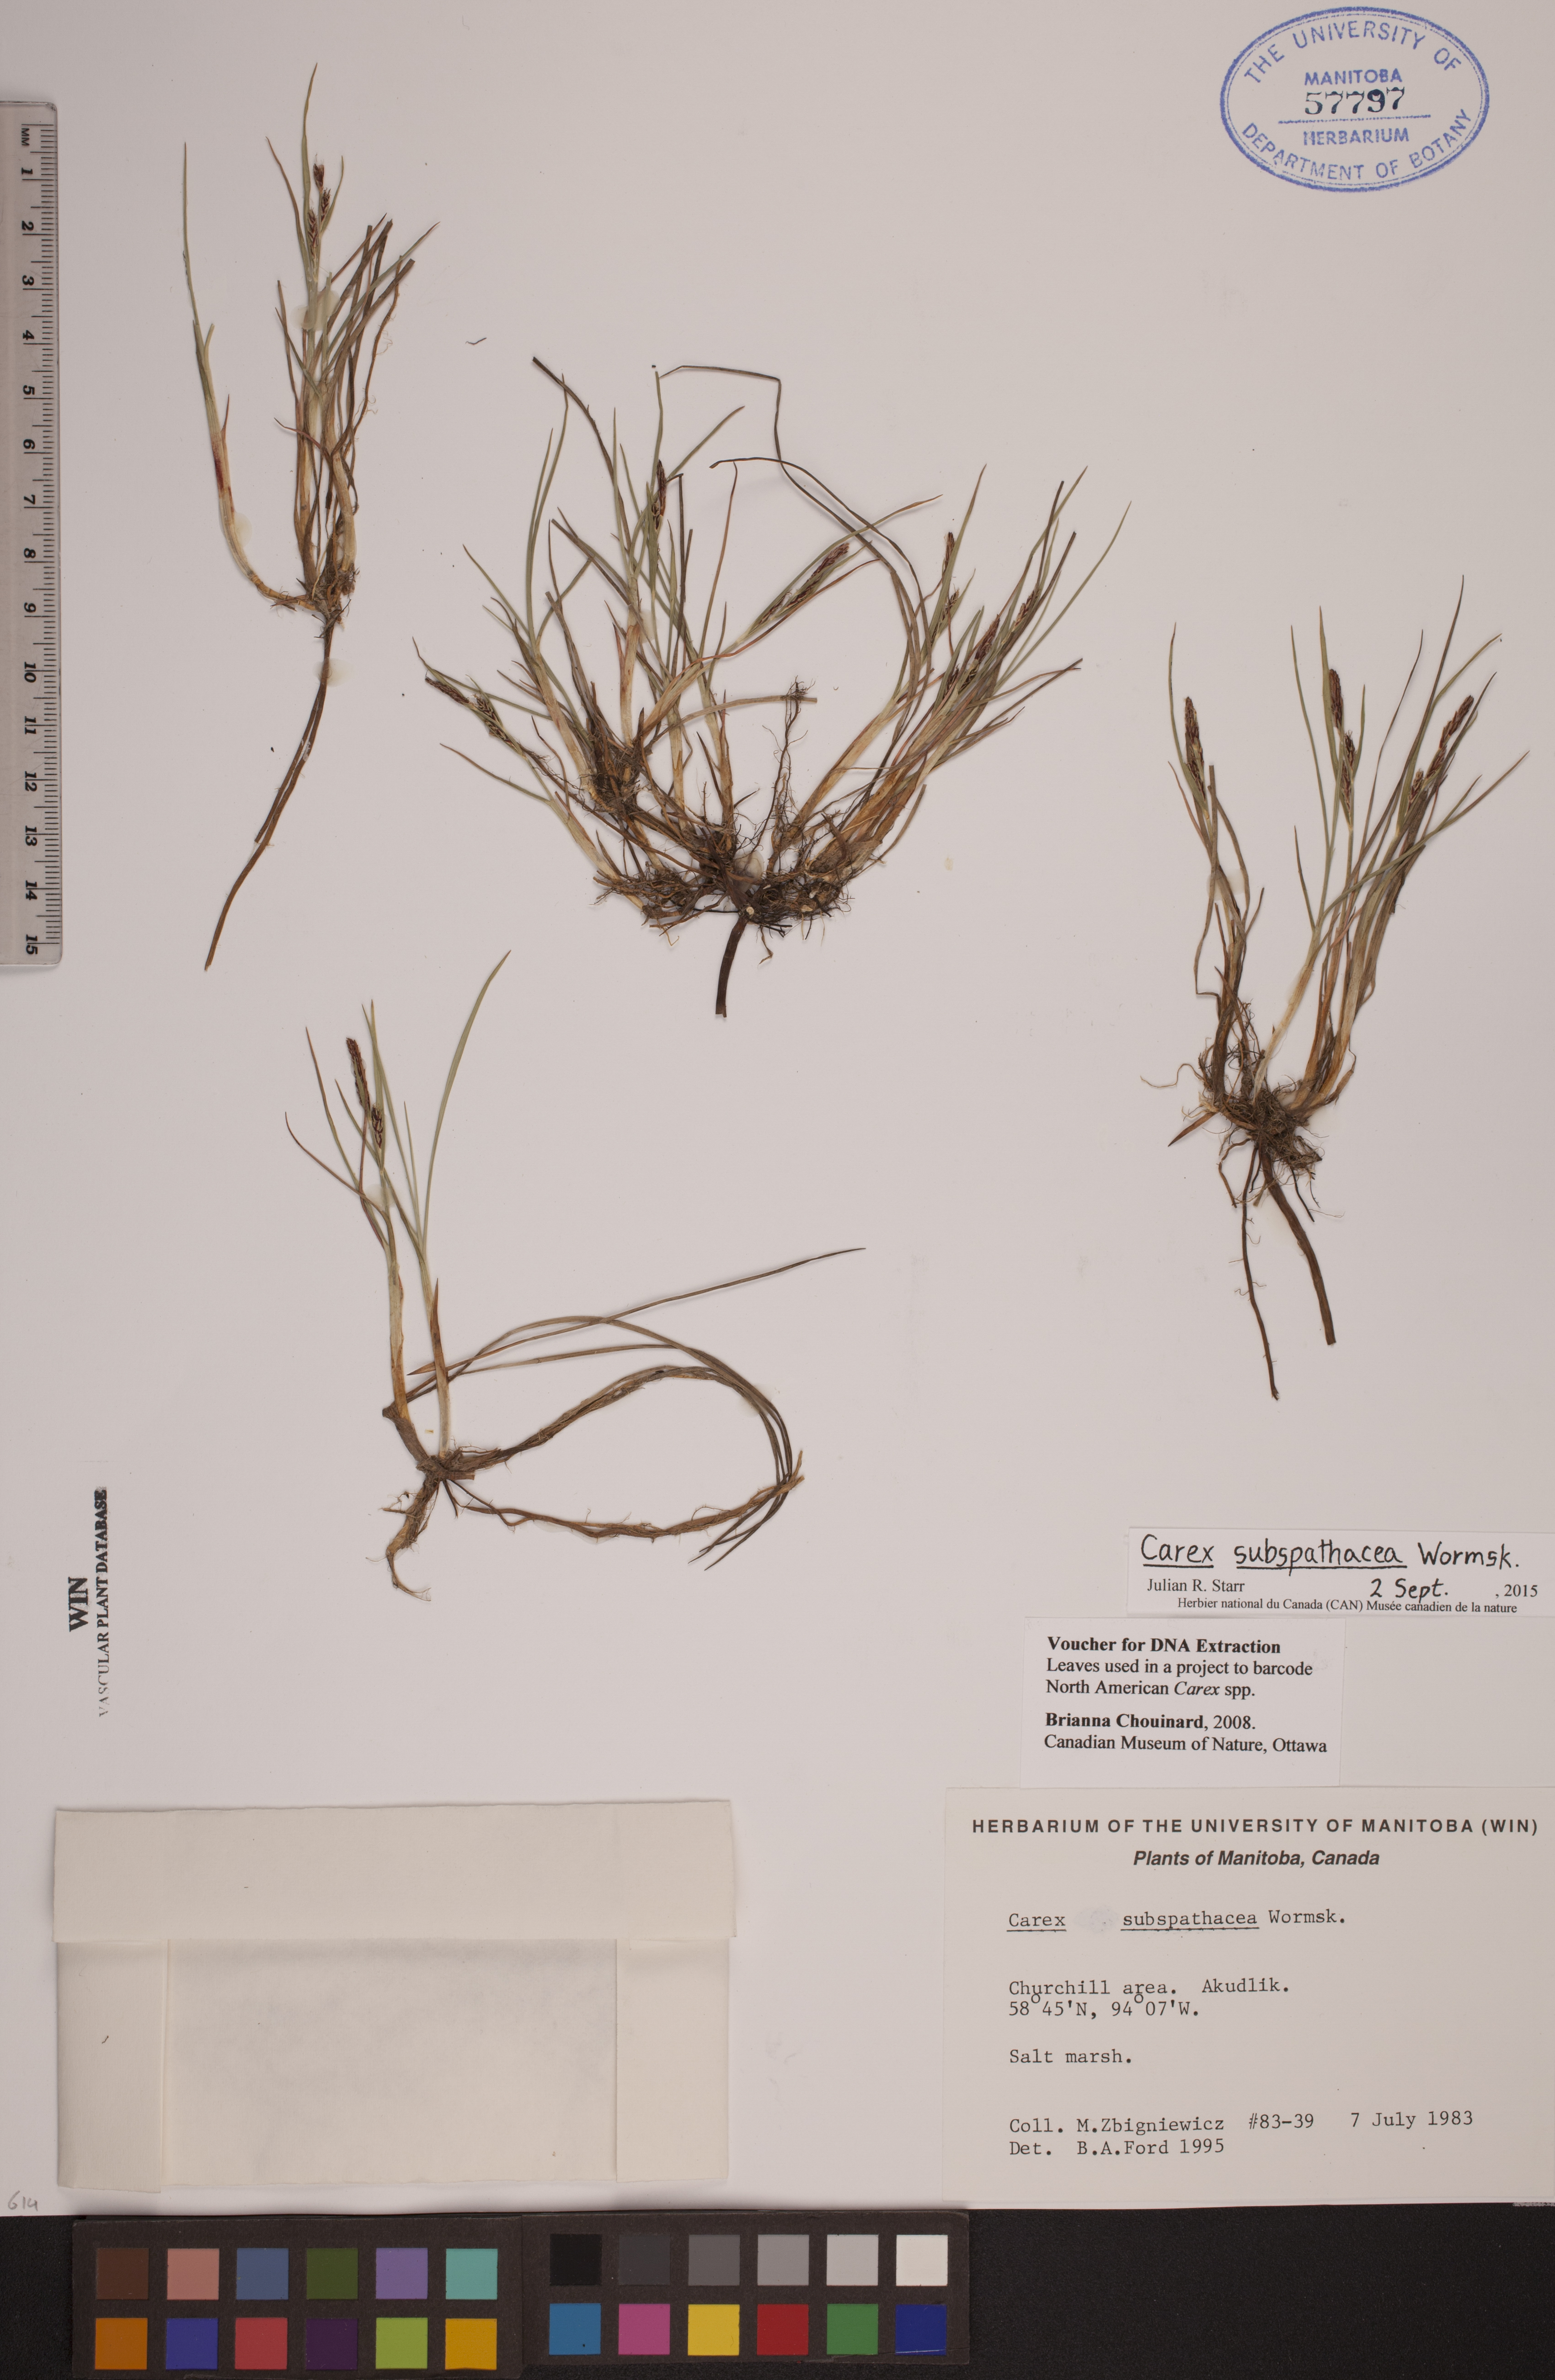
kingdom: Plantae
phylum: Tracheophyta
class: Liliopsida
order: Poales
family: Cyperaceae
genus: Carex
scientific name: Carex subspathacea
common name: Hoppner's sedge
